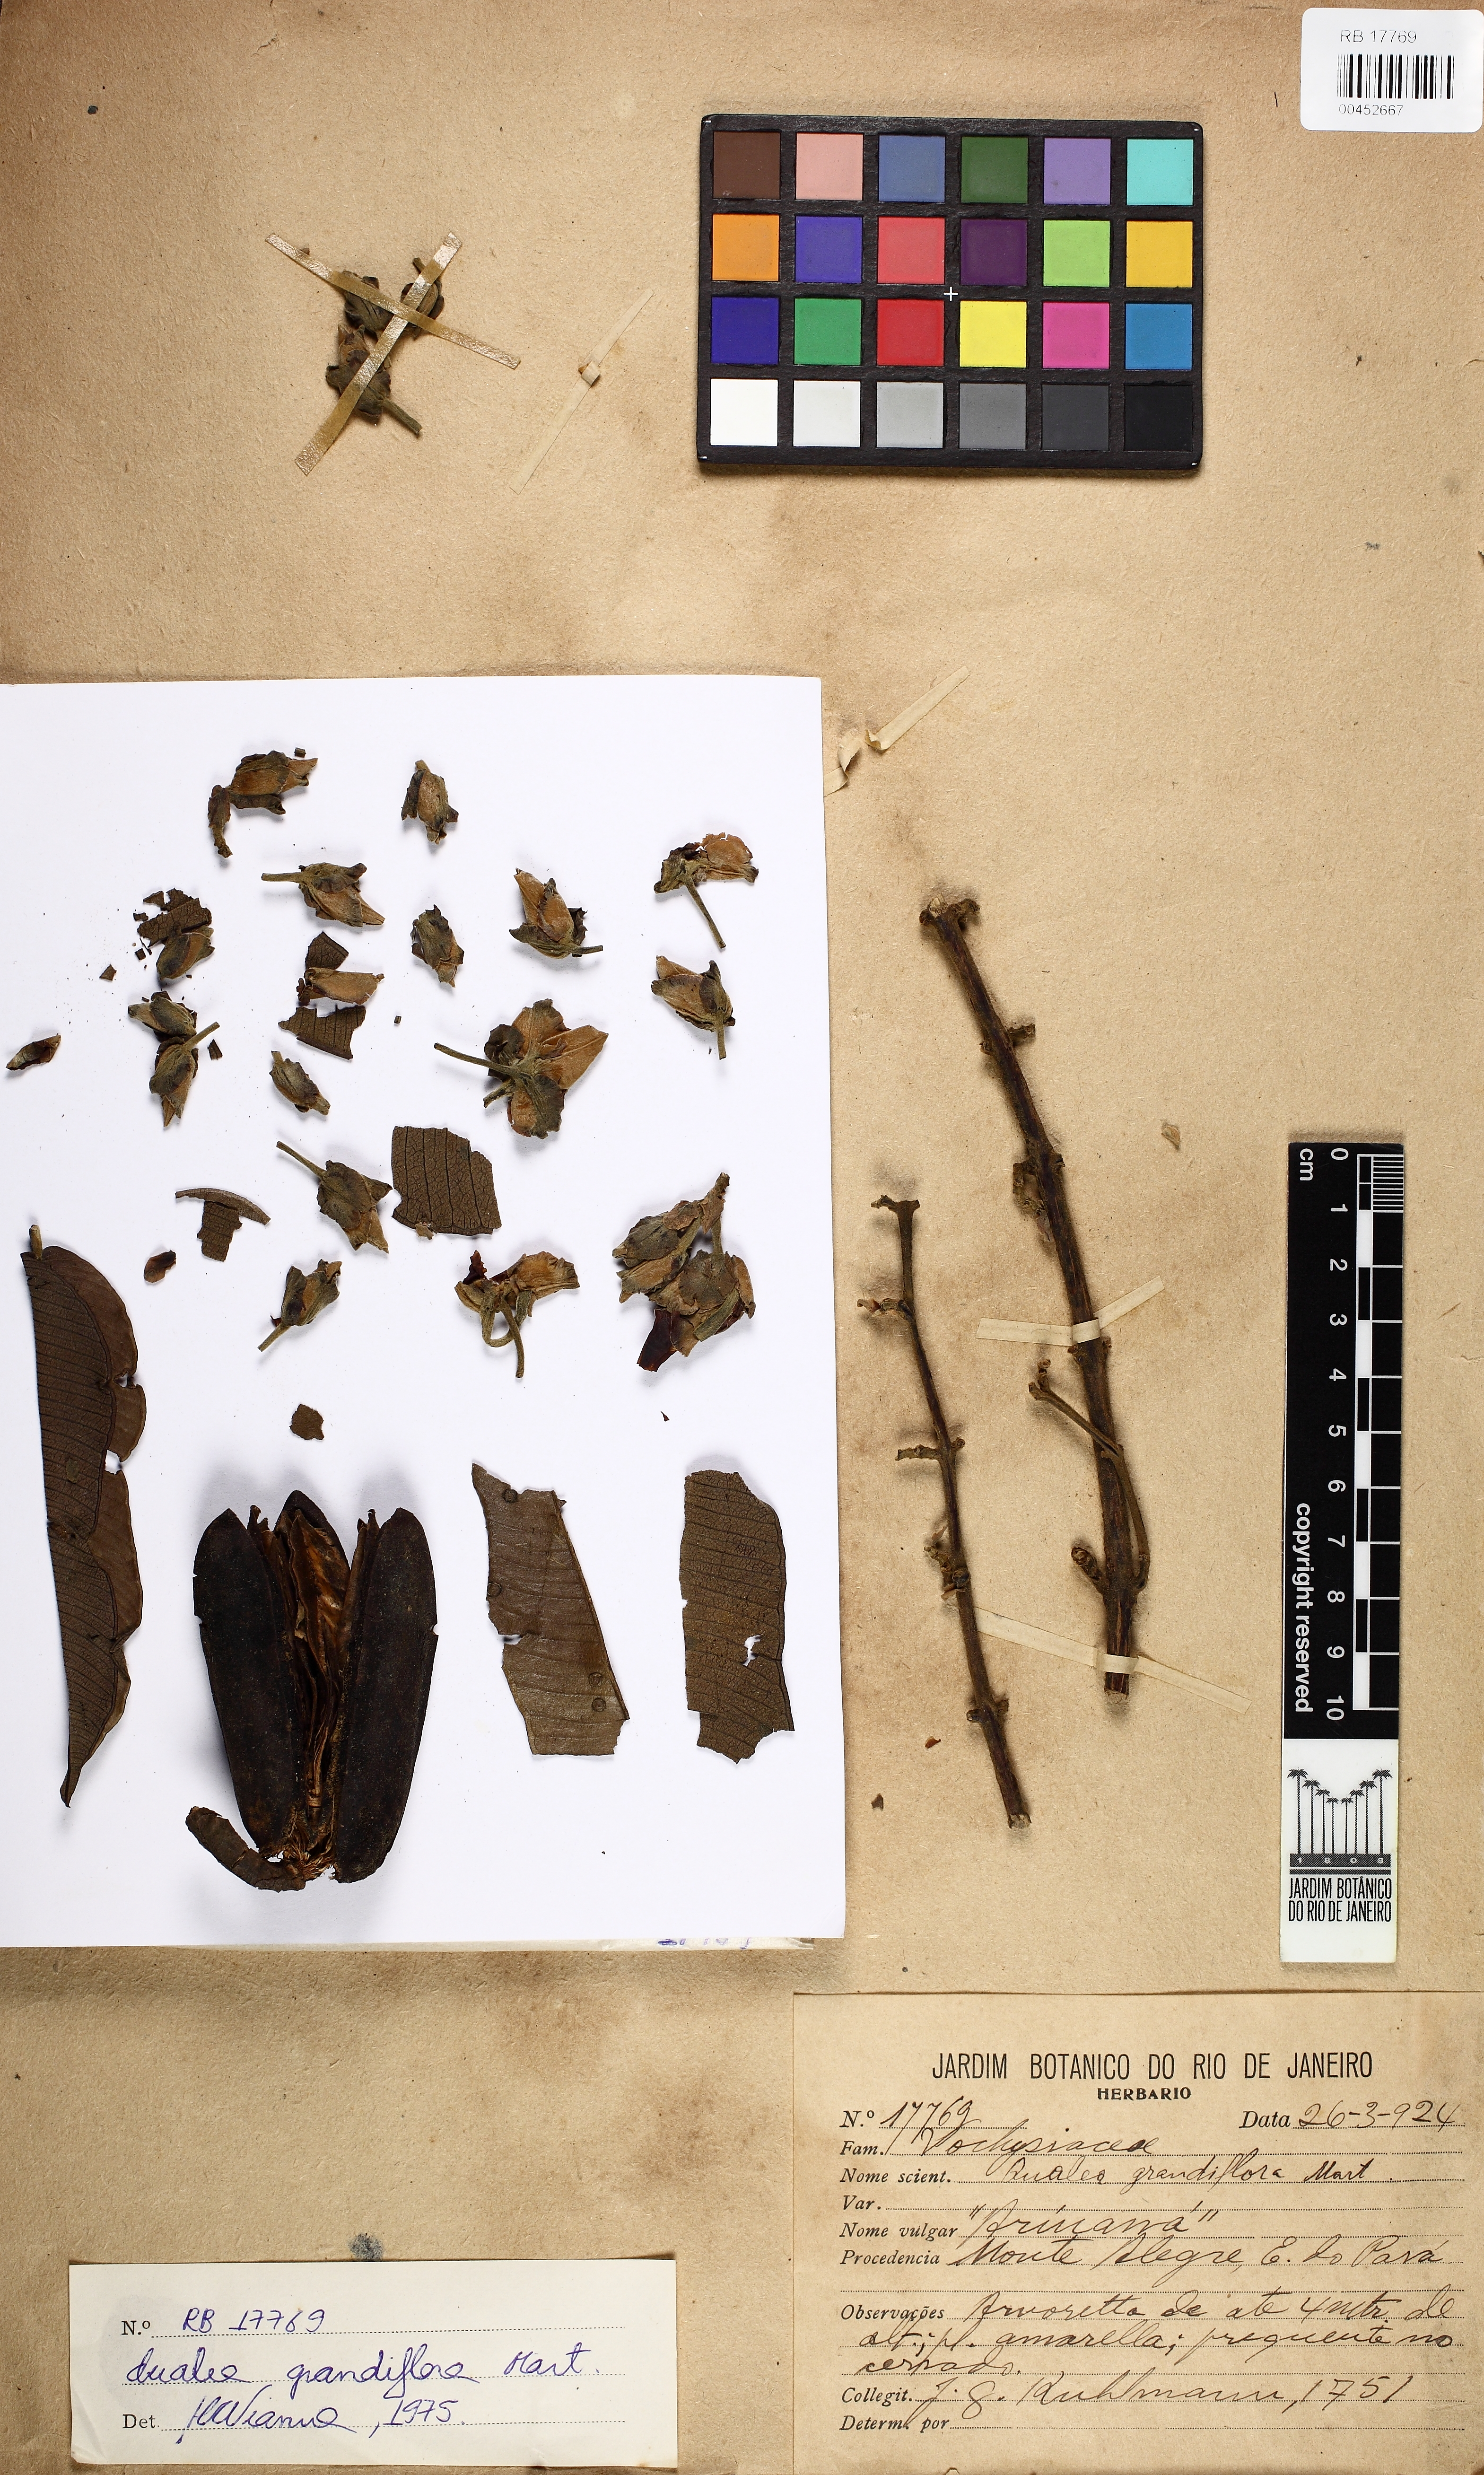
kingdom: Plantae
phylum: Tracheophyta
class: Magnoliopsida
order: Myrtales
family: Vochysiaceae
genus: Qualea
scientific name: Qualea grandiflora
